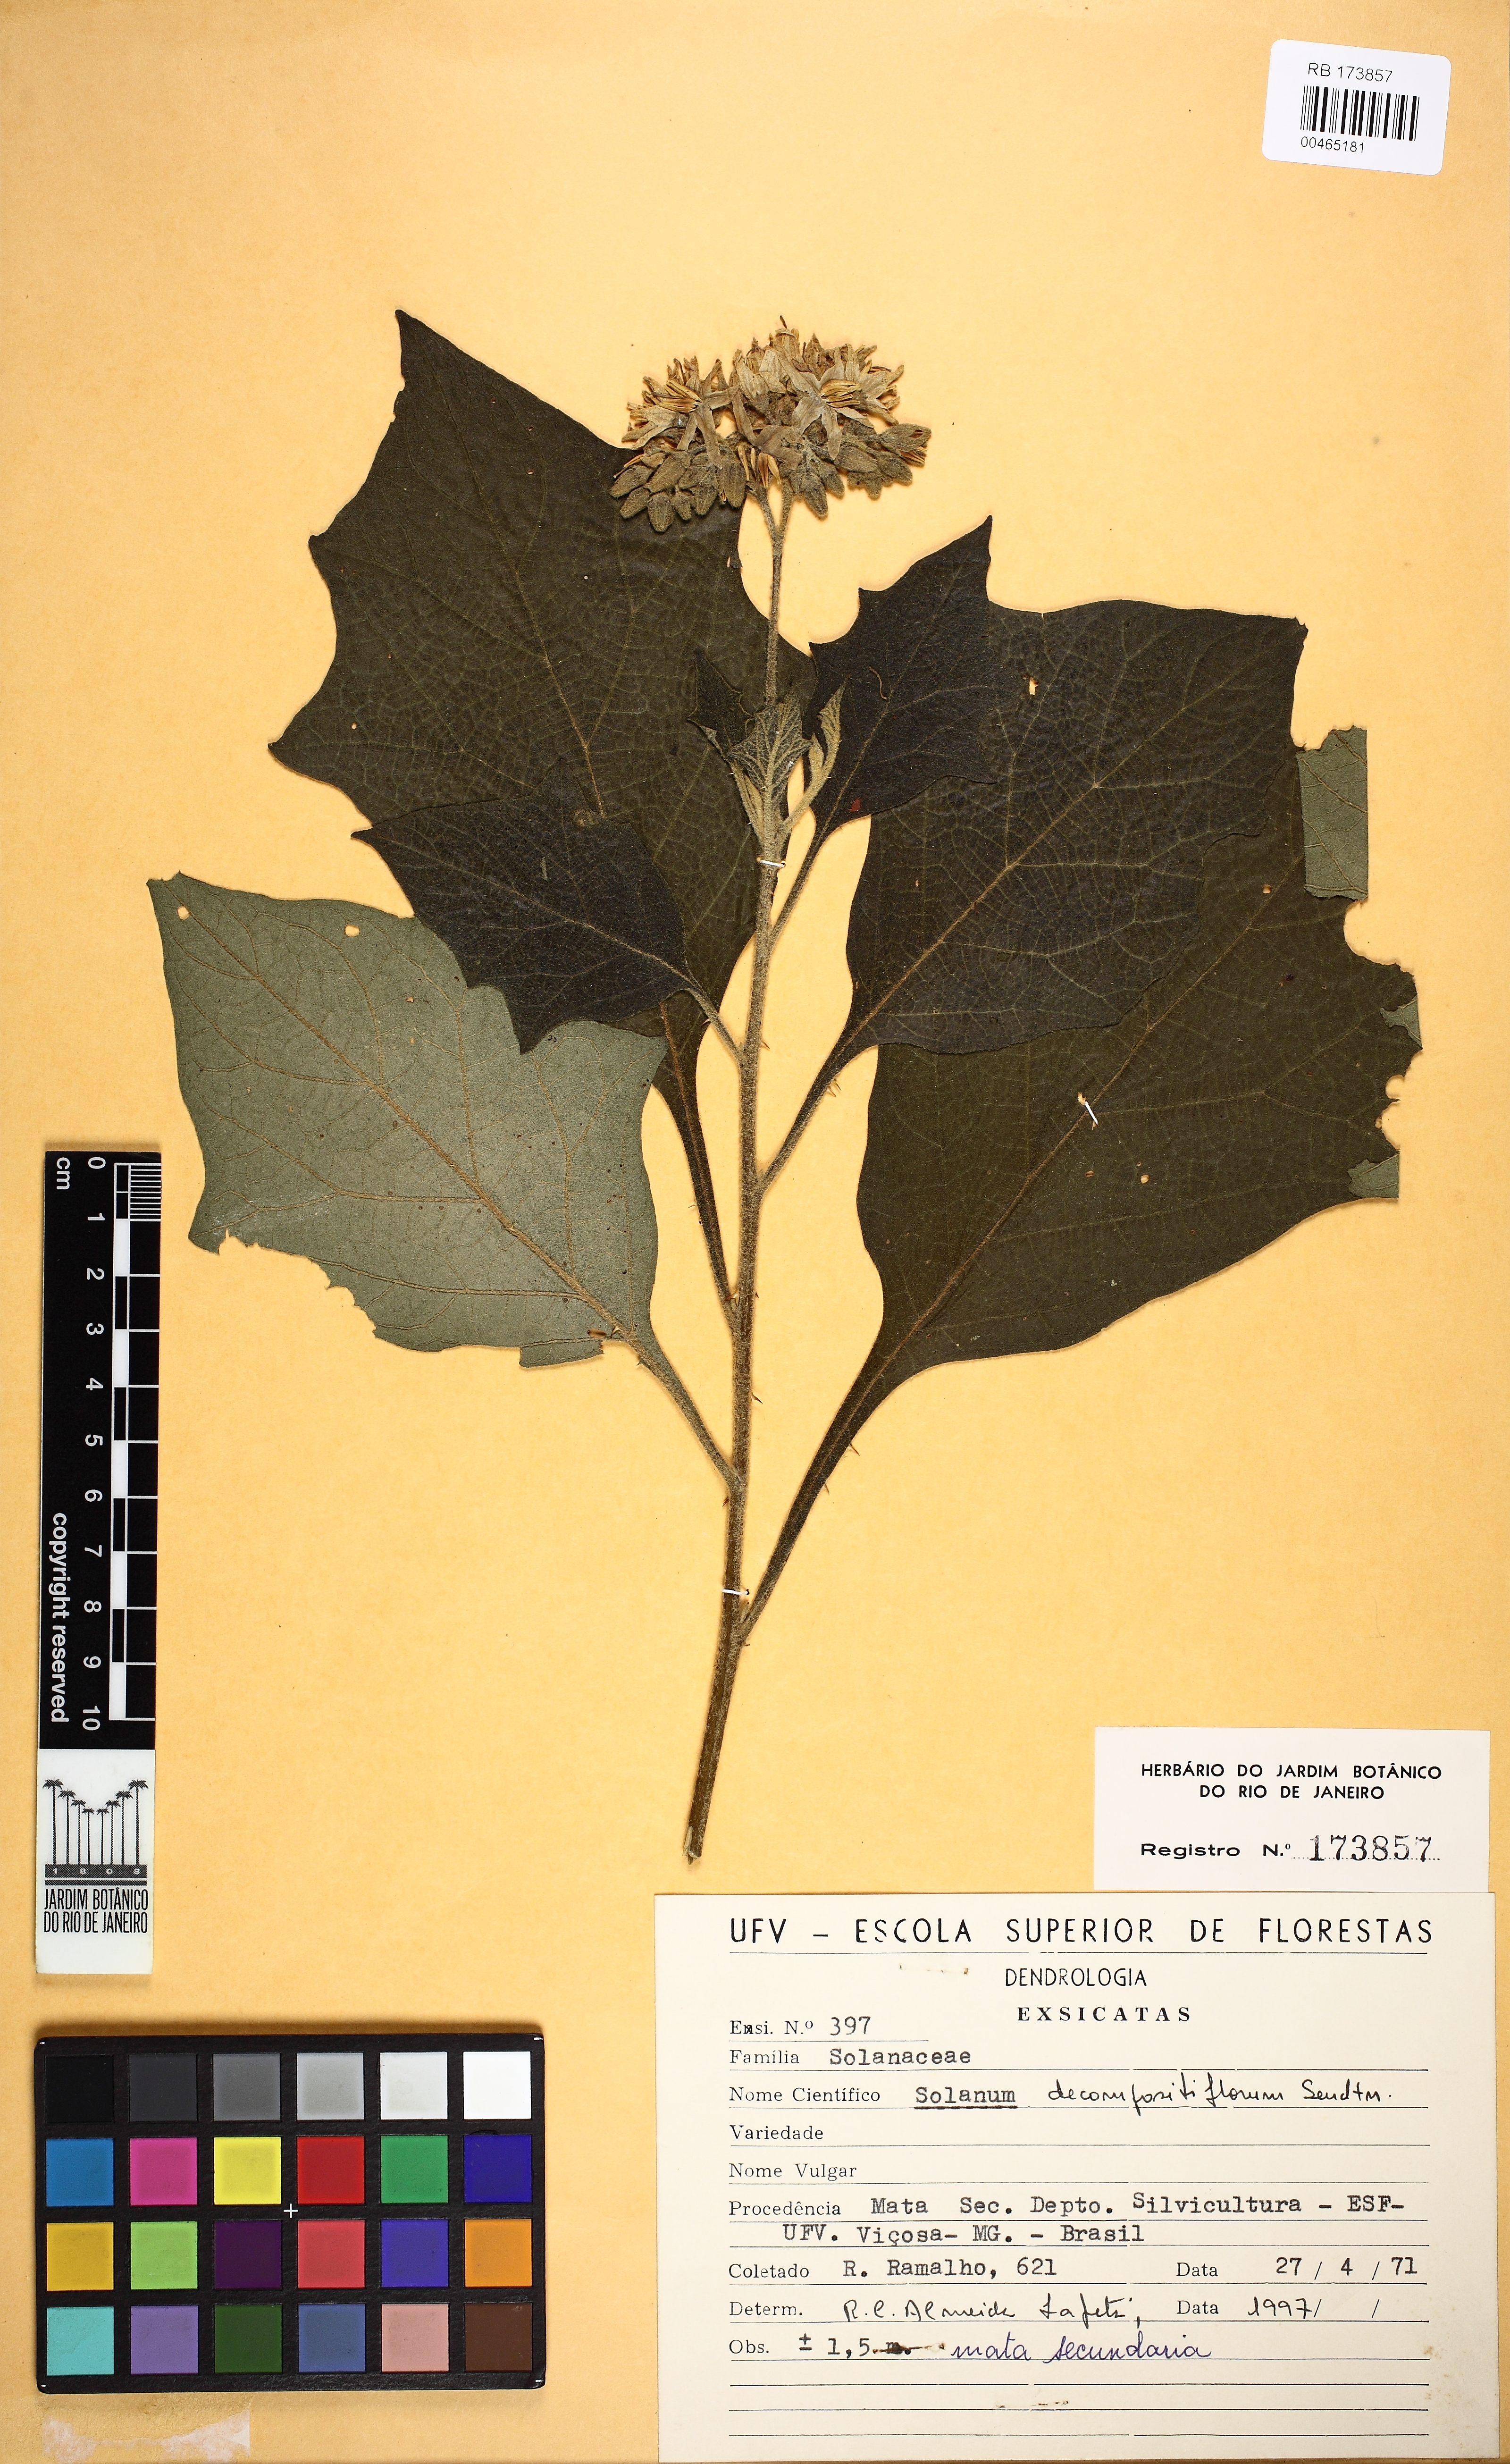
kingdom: Plantae
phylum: Tracheophyta
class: Magnoliopsida
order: Solanales
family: Solanaceae
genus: Solanum
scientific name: Solanum decompositiflorum
